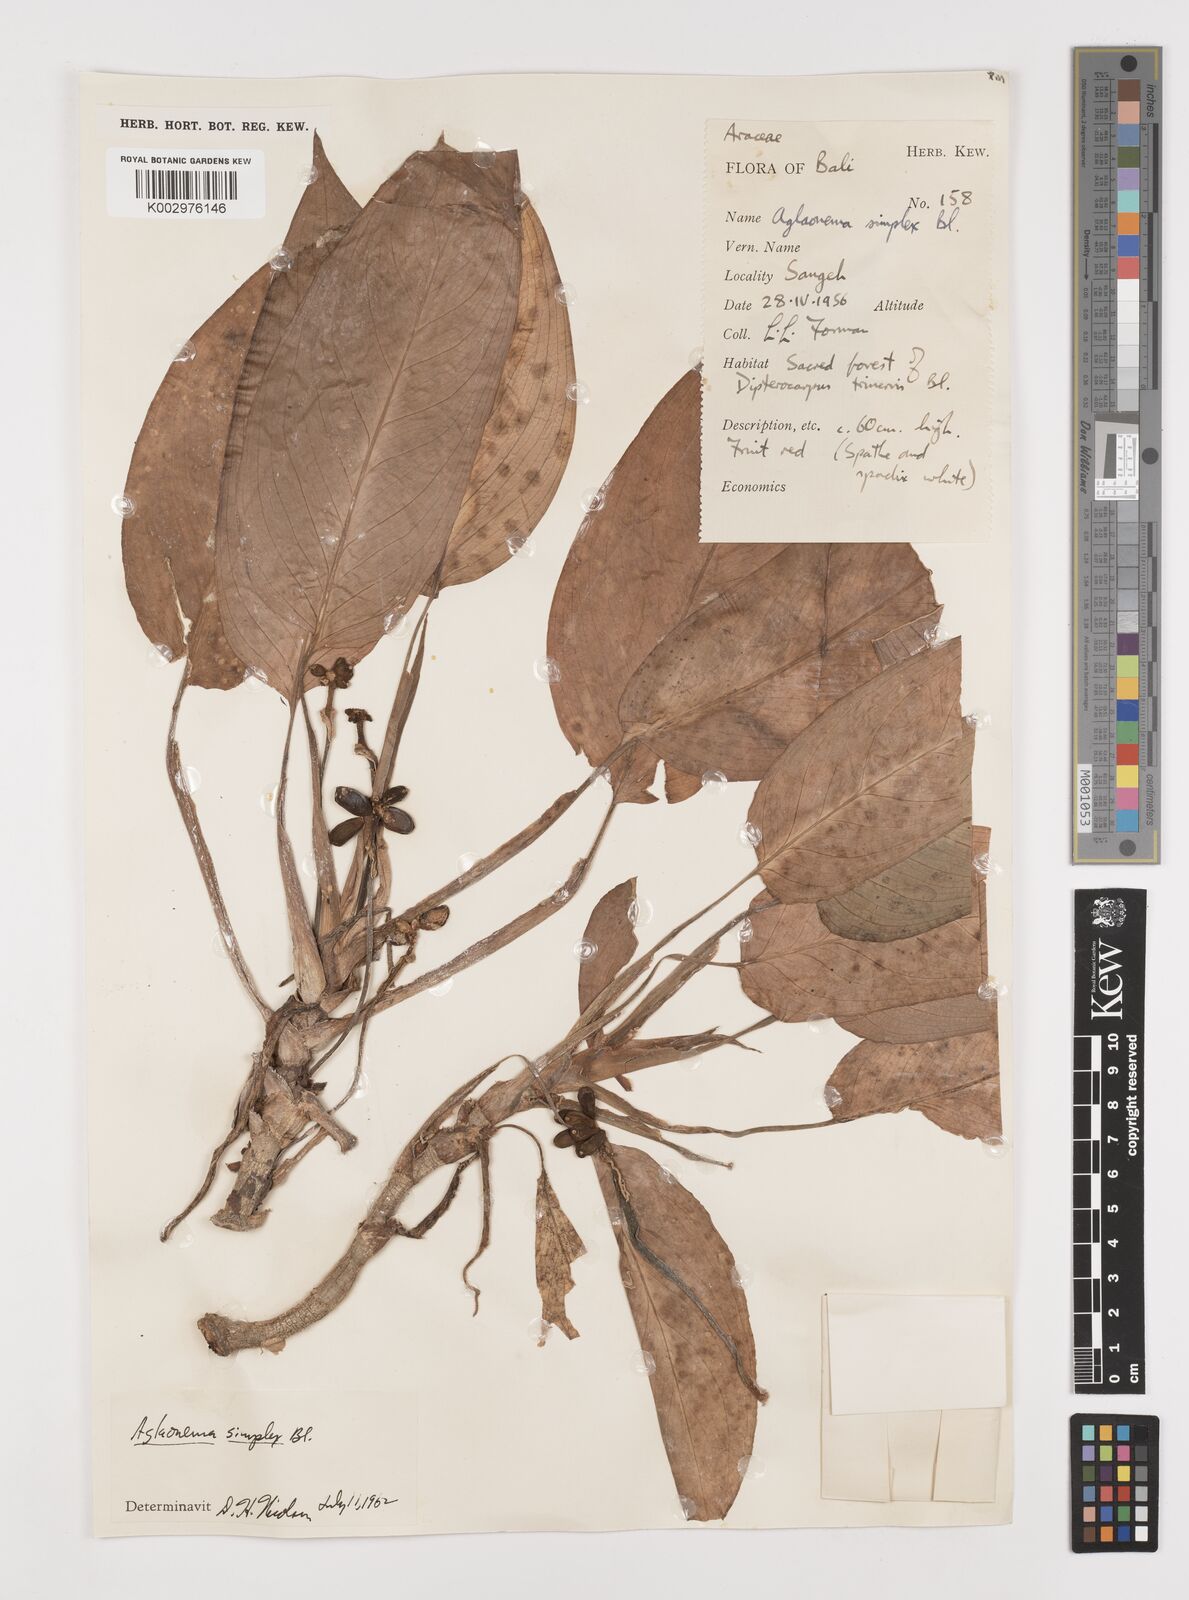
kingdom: Plantae
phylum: Tracheophyta
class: Liliopsida
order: Alismatales
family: Araceae
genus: Aglaonema
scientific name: Aglaonema simplex
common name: Malayan-sword
